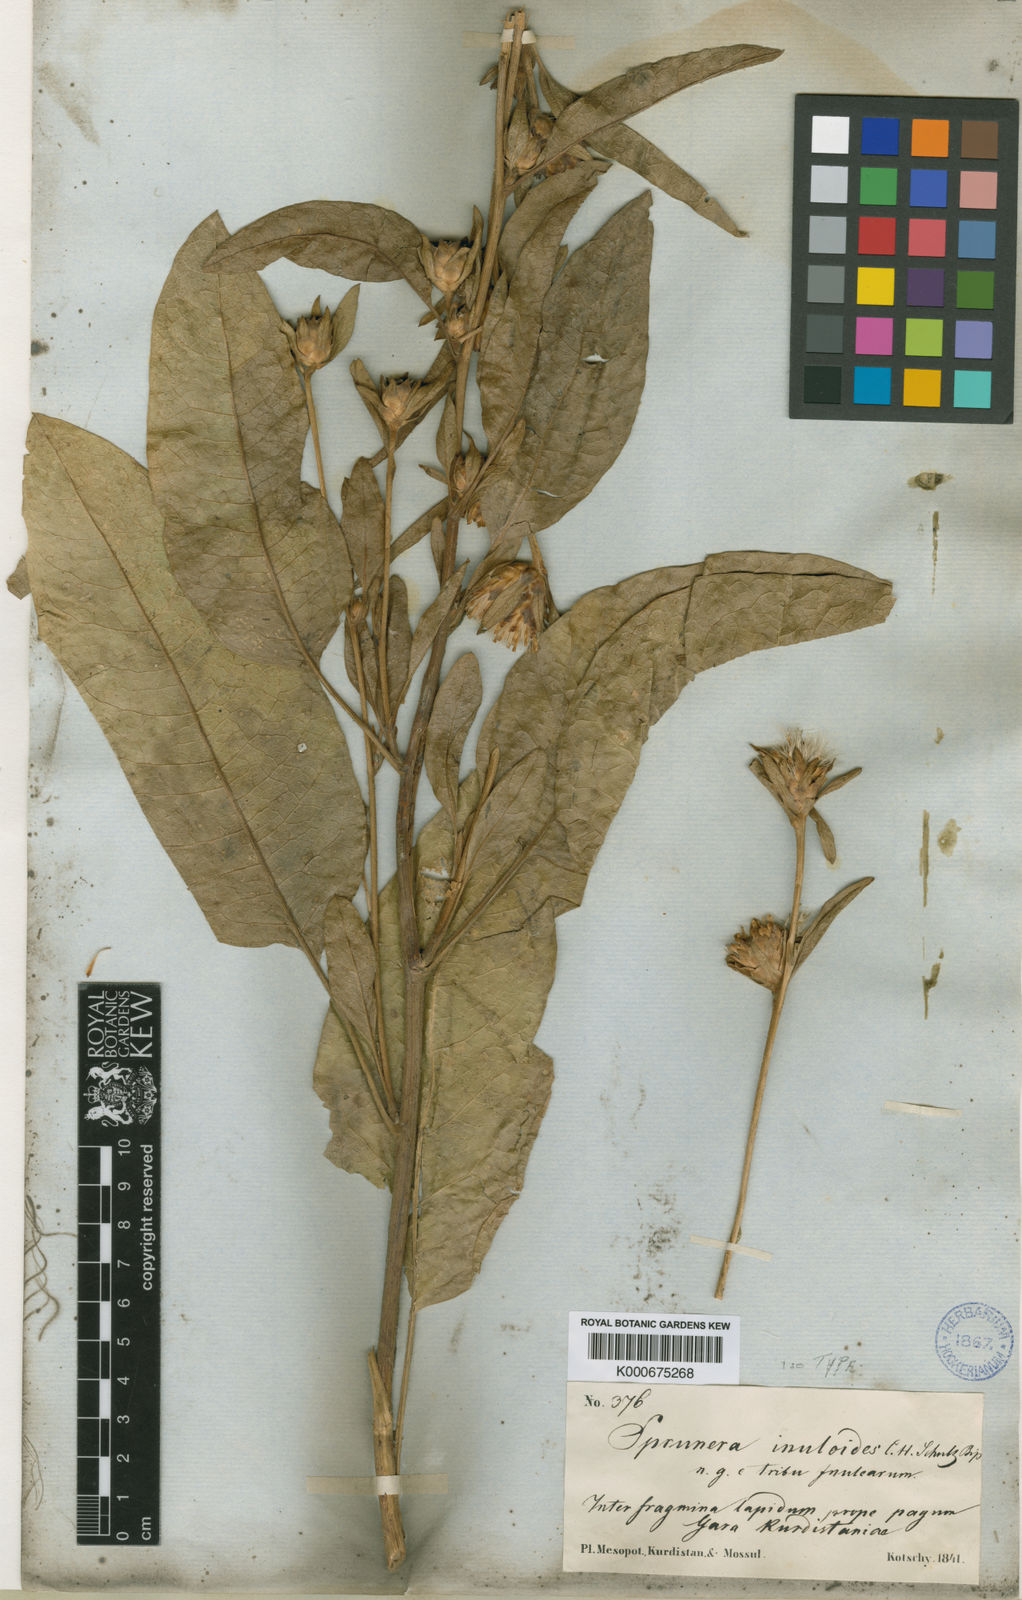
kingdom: Plantae
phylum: Tracheophyta
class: Magnoliopsida
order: Asterales
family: Asteraceae
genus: Inula
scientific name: Inula inuloides
